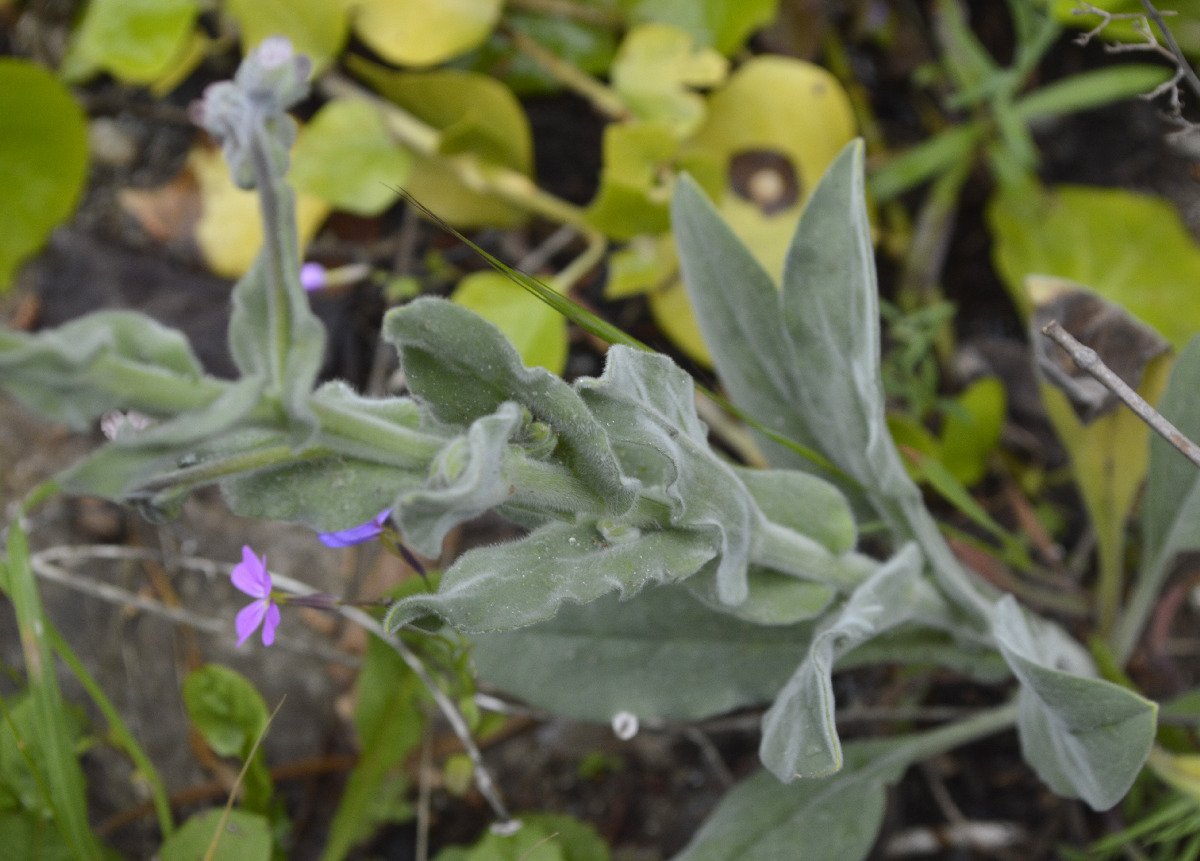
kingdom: Plantae
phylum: Tracheophyta
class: Magnoliopsida
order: Boraginales
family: Boraginaceae
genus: Rindera
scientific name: Rindera columnae
